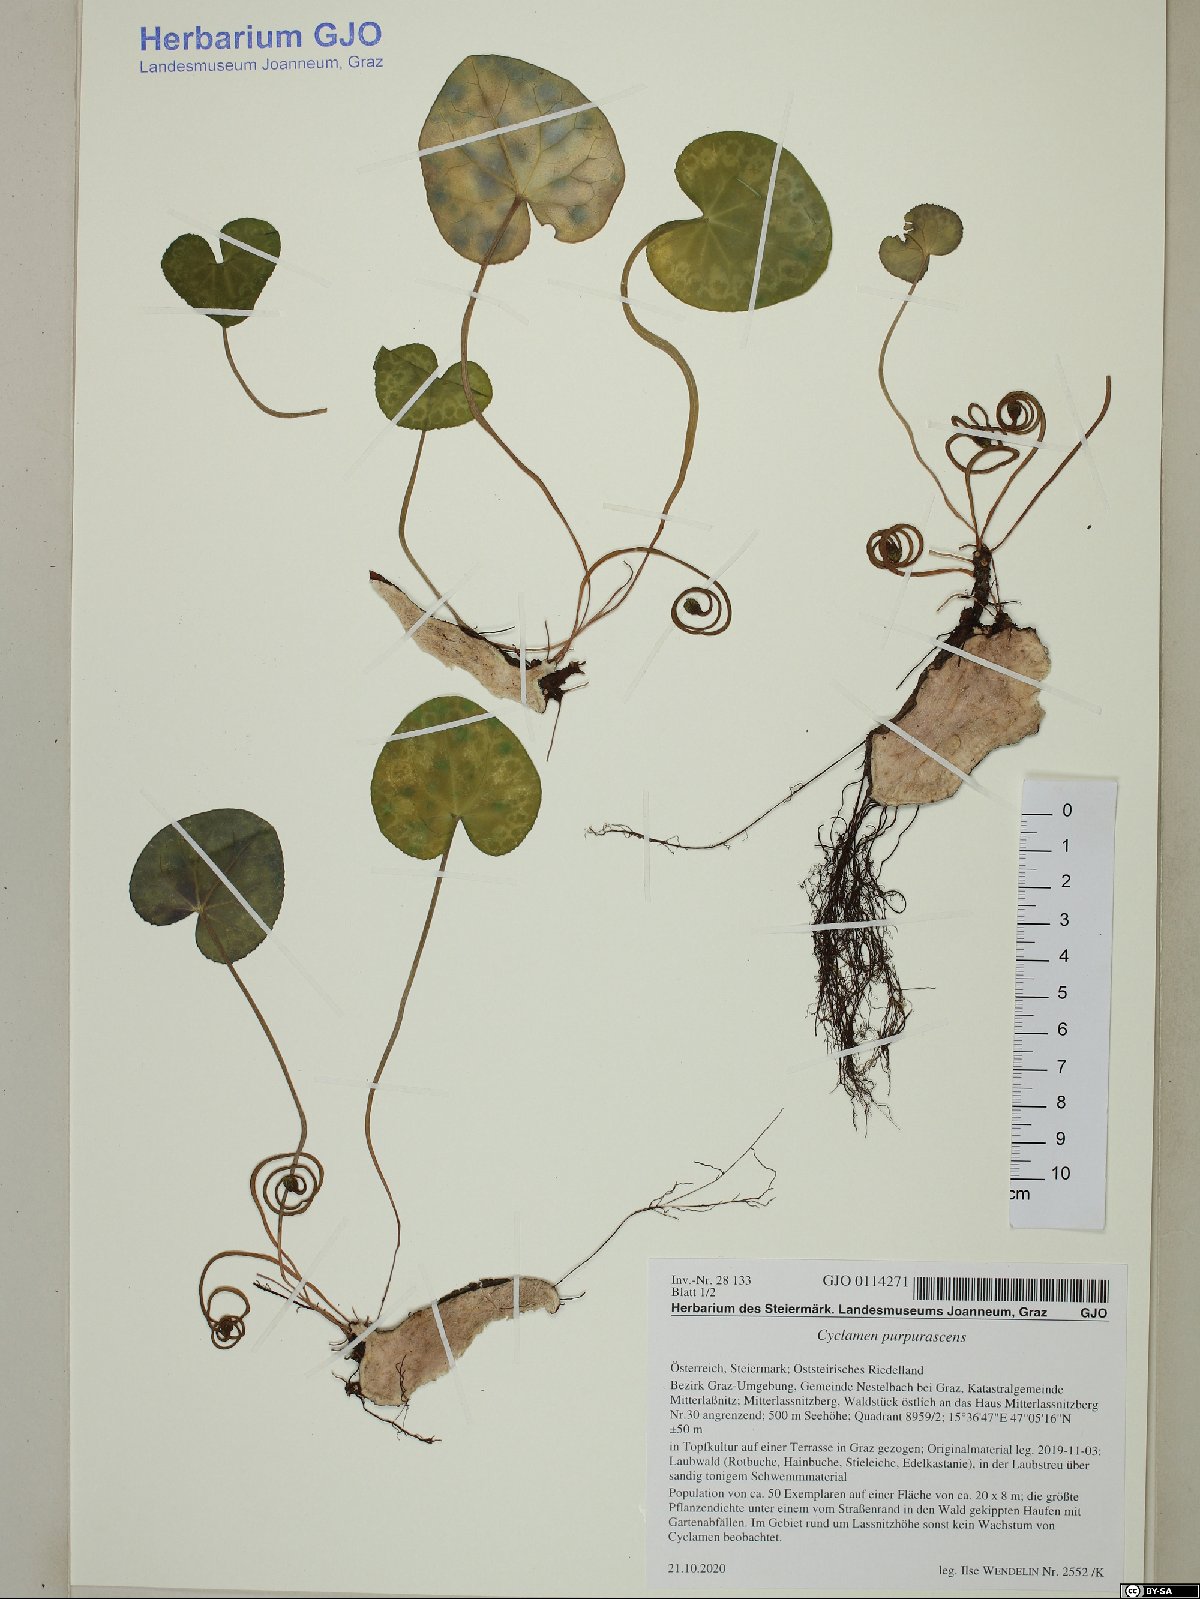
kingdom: Plantae
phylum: Tracheophyta
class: Magnoliopsida
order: Ericales
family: Primulaceae
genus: Cyclamen
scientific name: Cyclamen purpurascens
